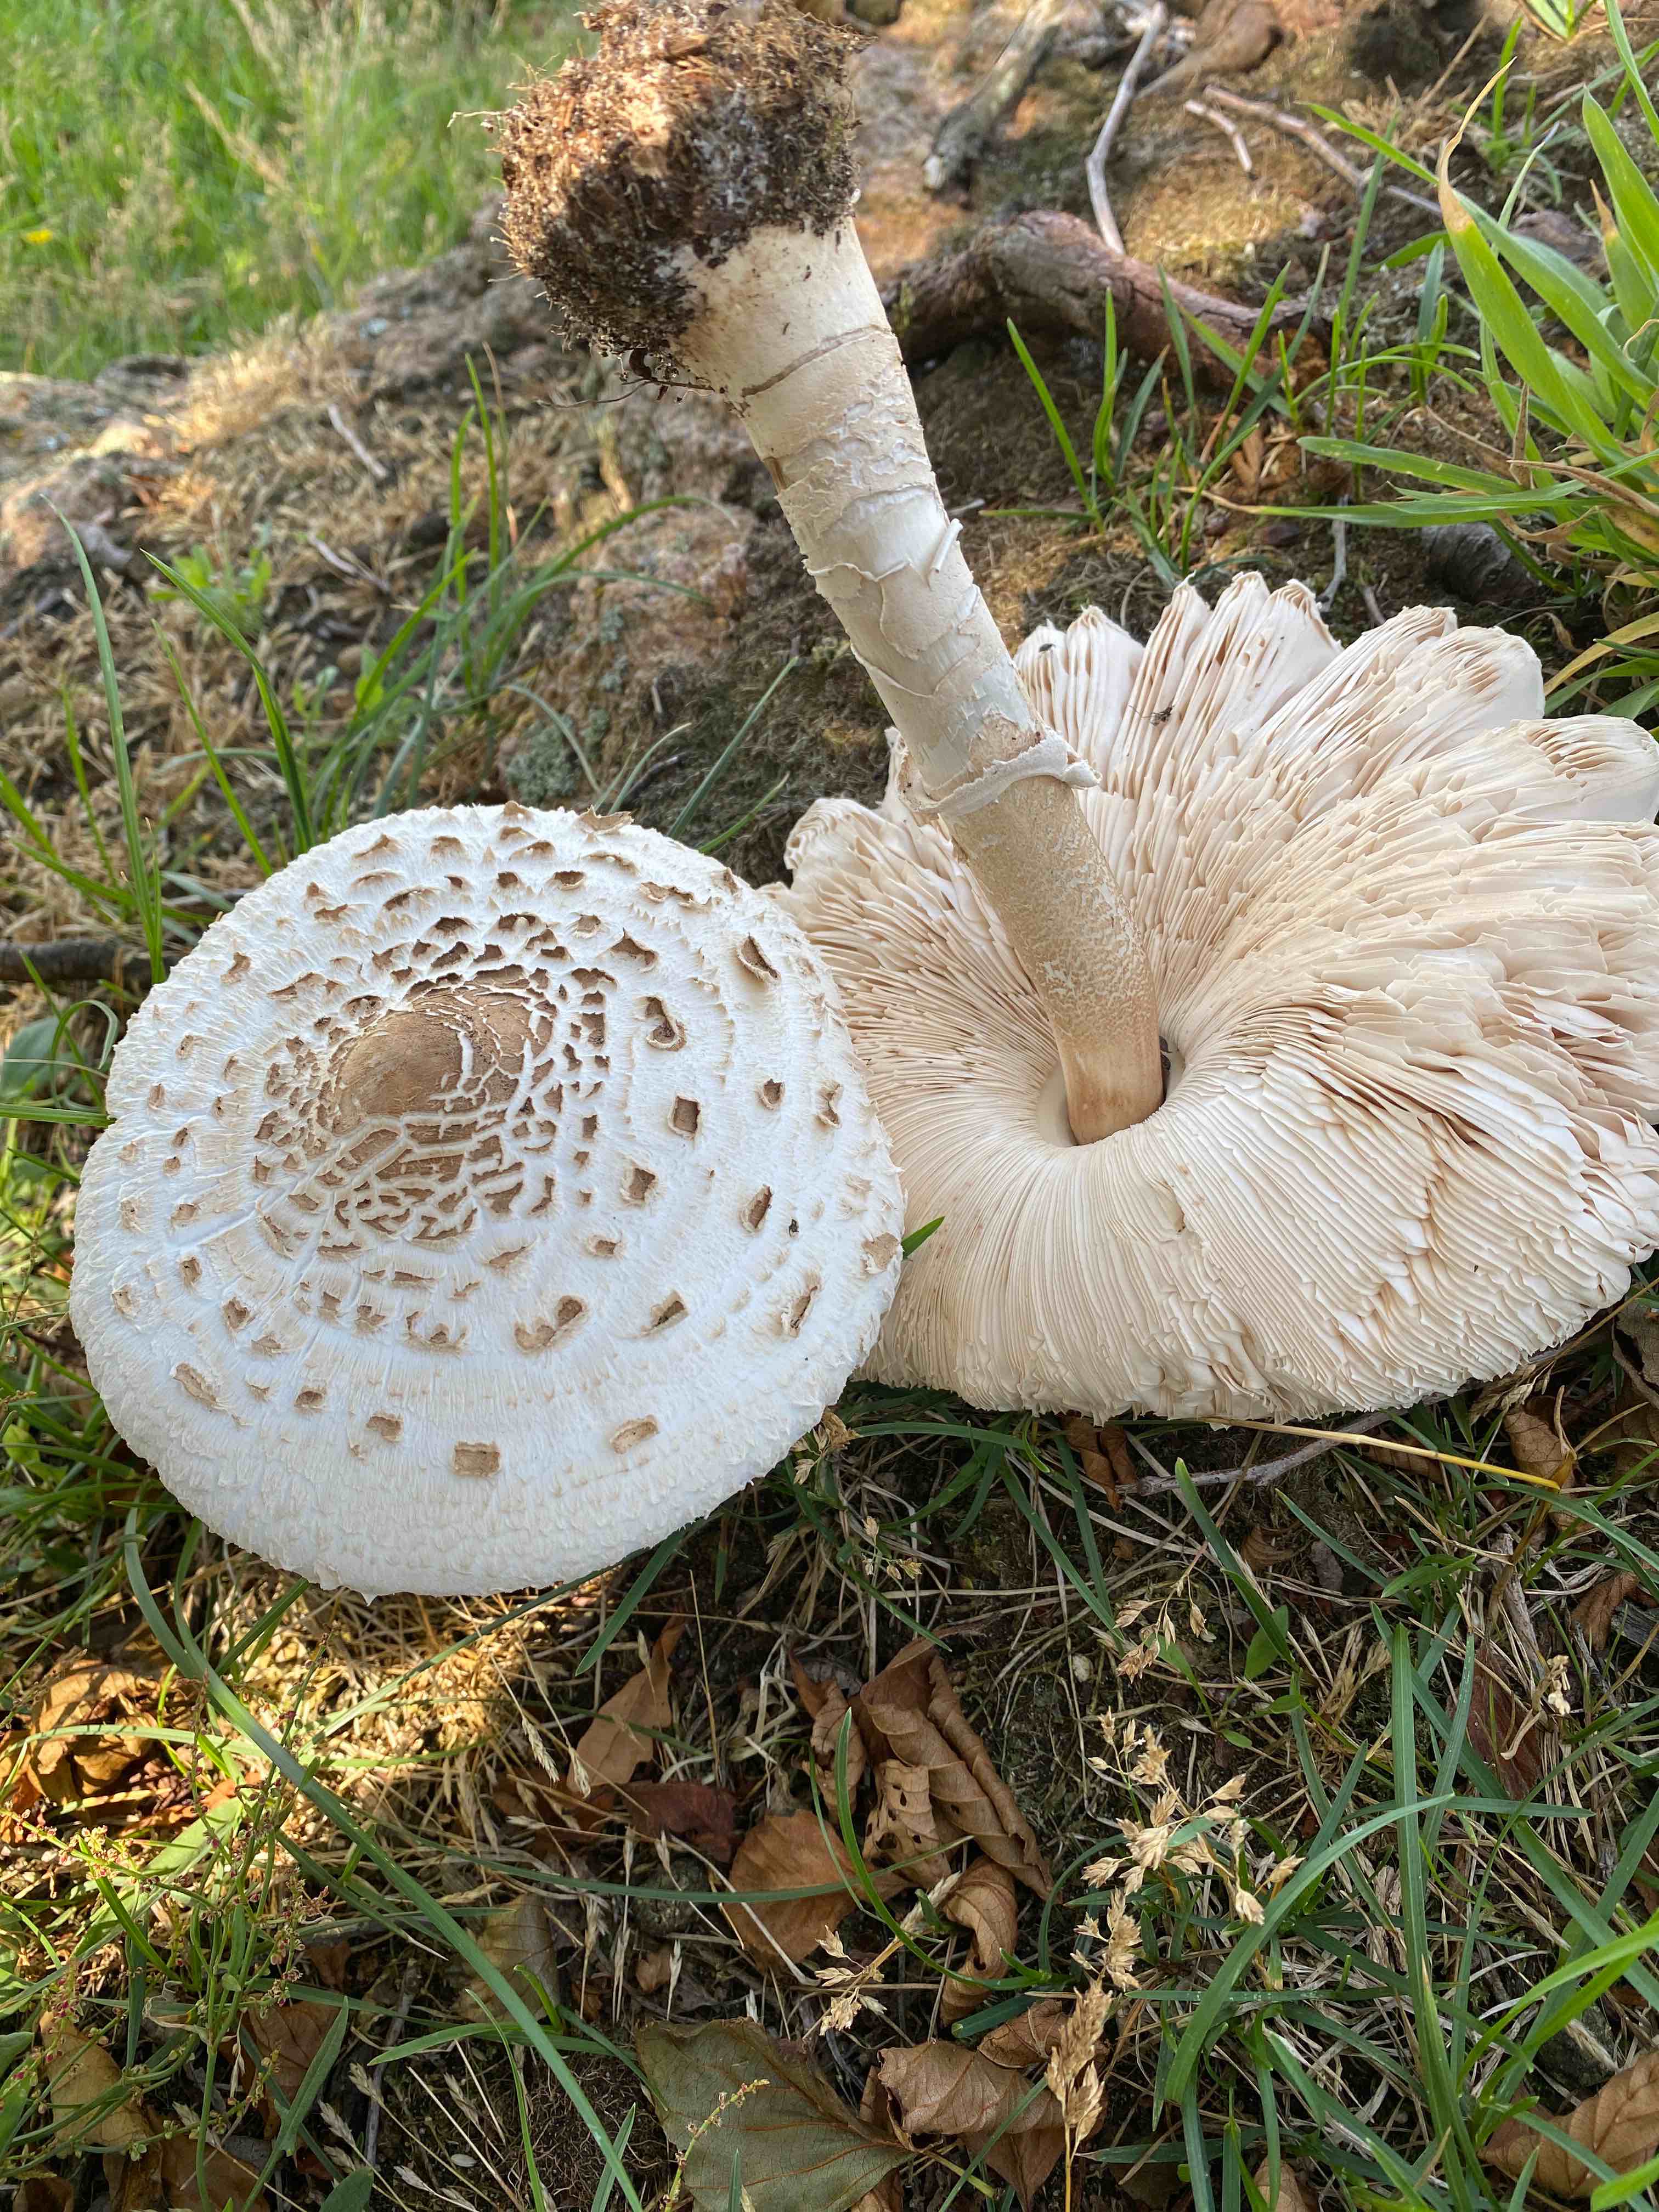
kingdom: Fungi
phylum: Basidiomycota
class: Agaricomycetes
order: Agaricales
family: Agaricaceae
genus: Macrolepiota
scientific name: Macrolepiota
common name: kæmpeparasolhat
